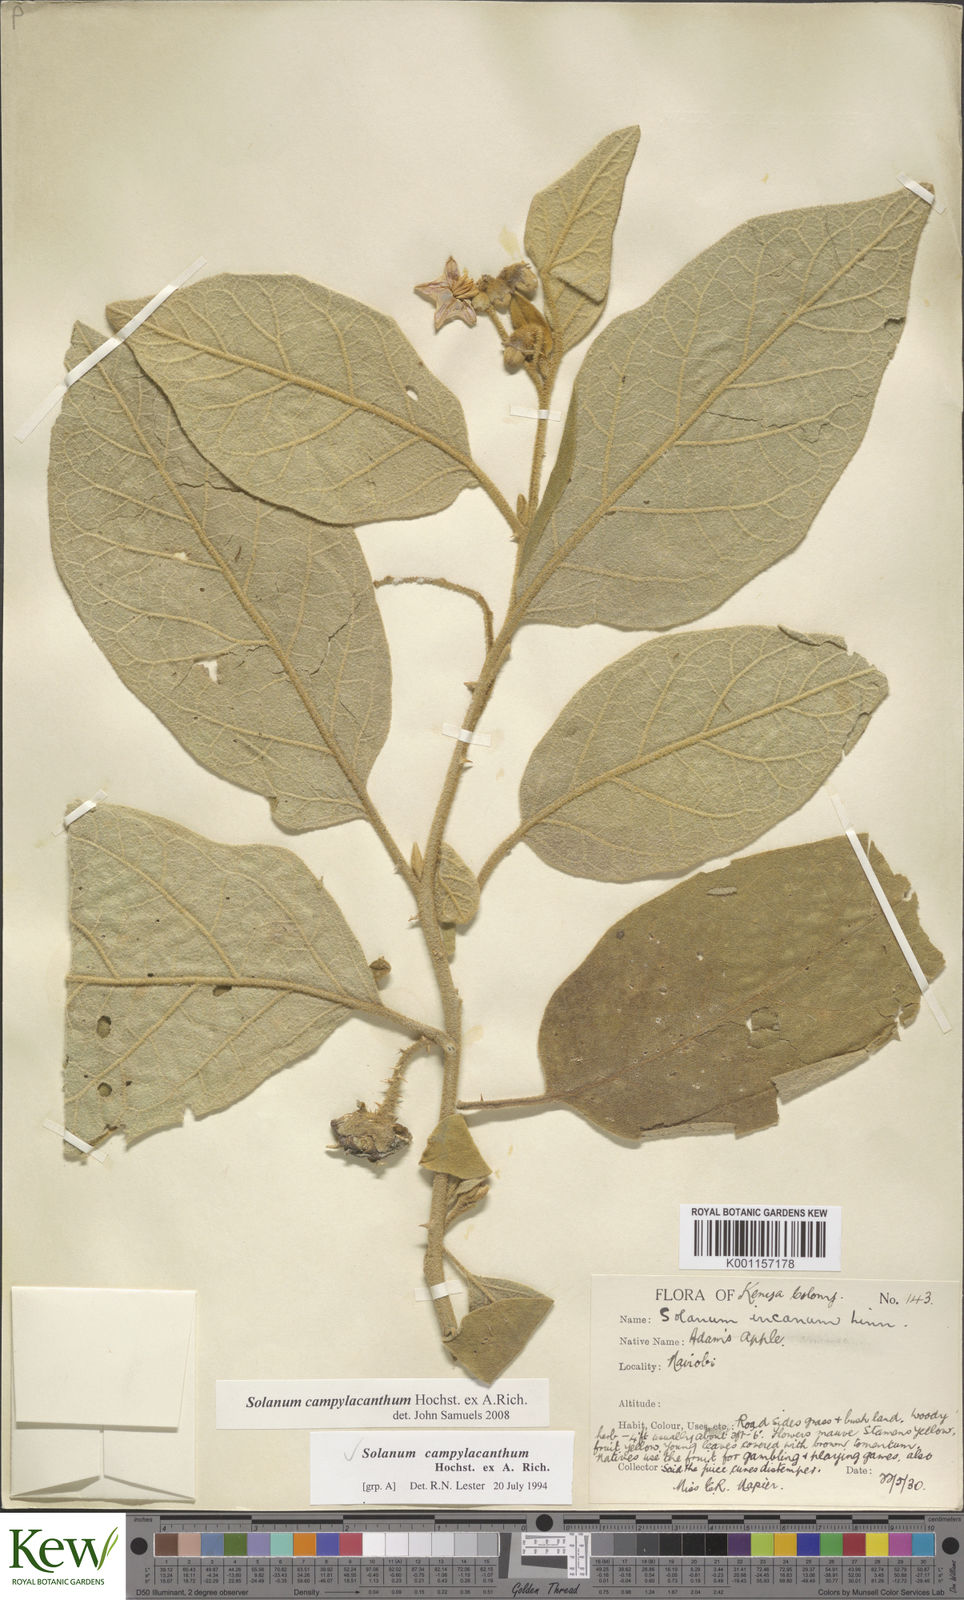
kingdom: Plantae
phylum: Tracheophyta
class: Magnoliopsida
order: Solanales
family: Solanaceae
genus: Solanum
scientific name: Solanum campylacanthum
